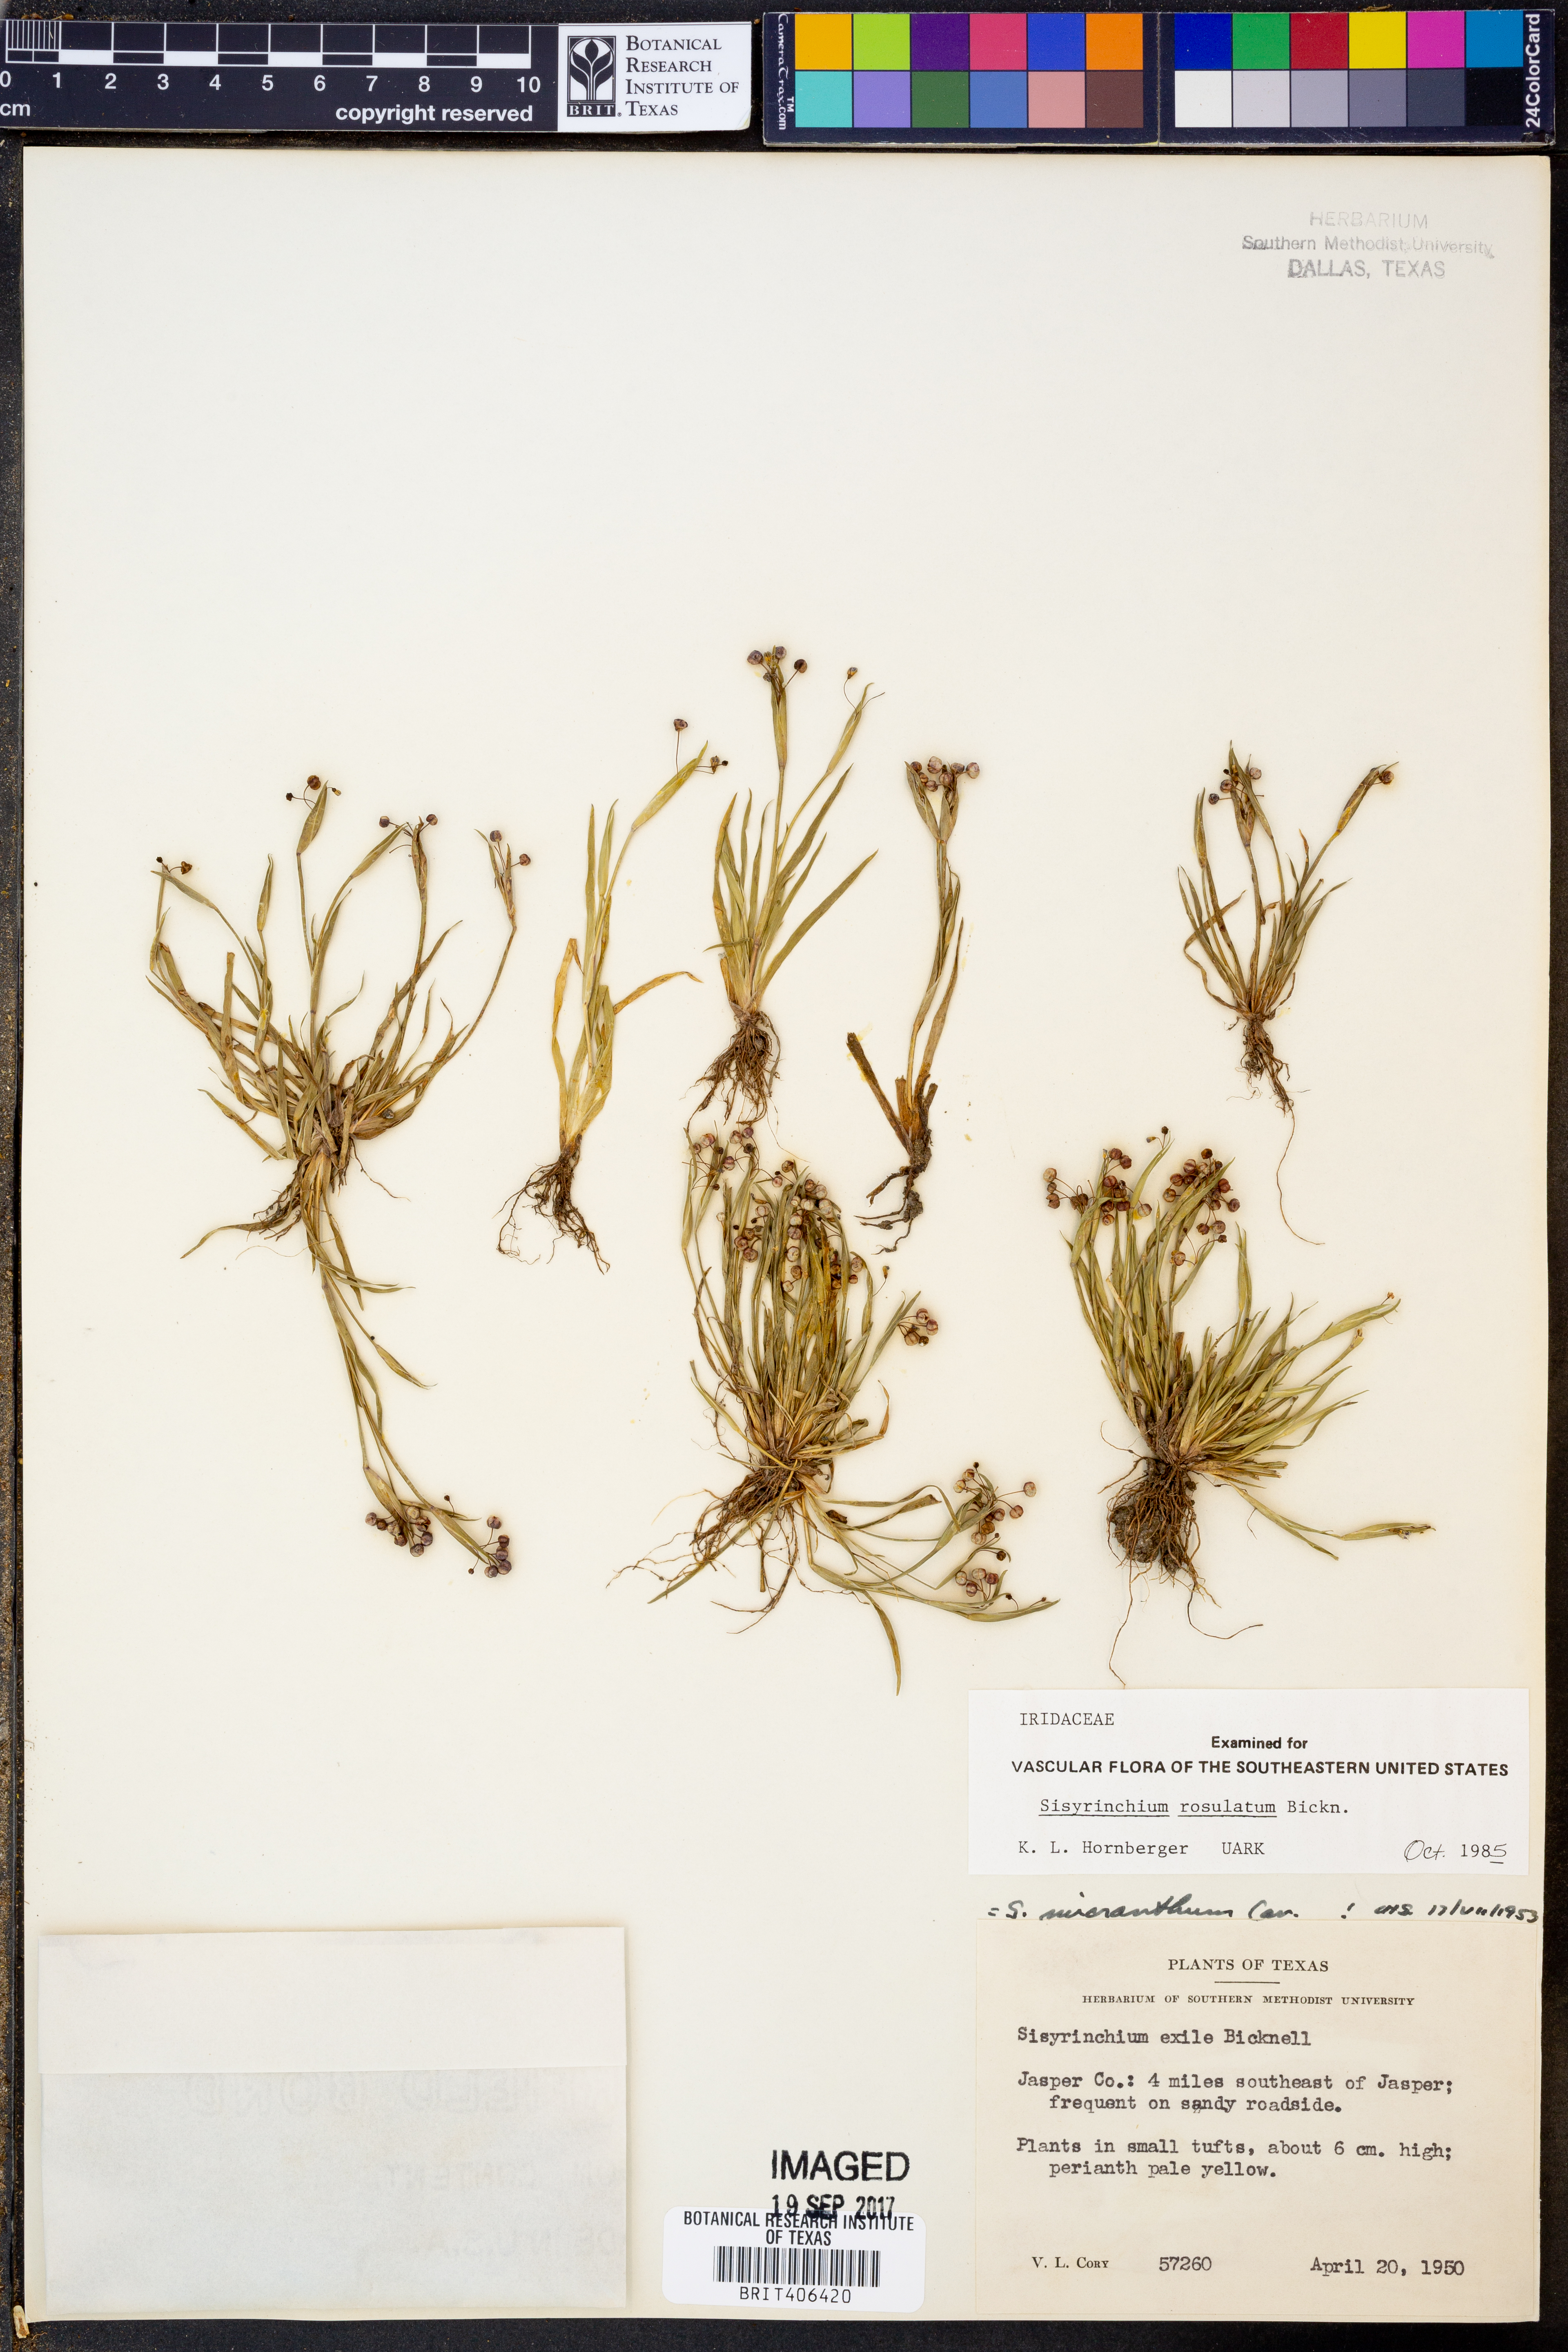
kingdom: Plantae
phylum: Tracheophyta
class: Liliopsida
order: Asparagales
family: Iridaceae
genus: Sisyrinchium
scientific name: Sisyrinchium rosulatum
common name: Annual blue-eyed grass
